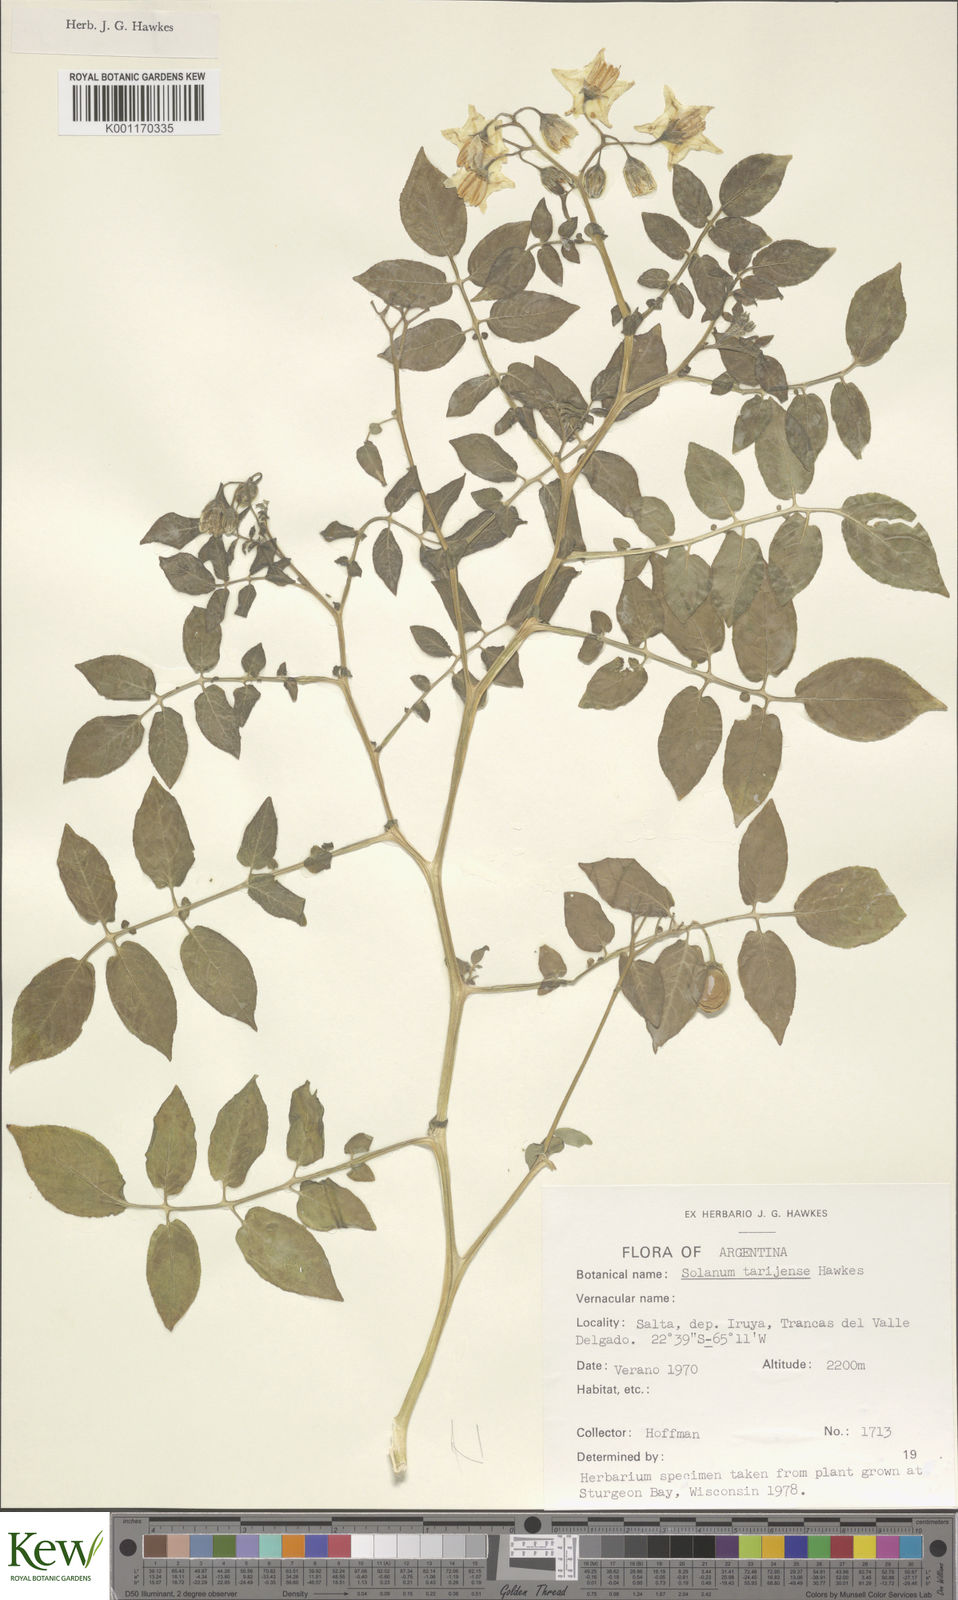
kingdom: Plantae
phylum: Tracheophyta
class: Magnoliopsida
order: Solanales
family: Solanaceae
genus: Solanum
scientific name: Solanum tarijense
